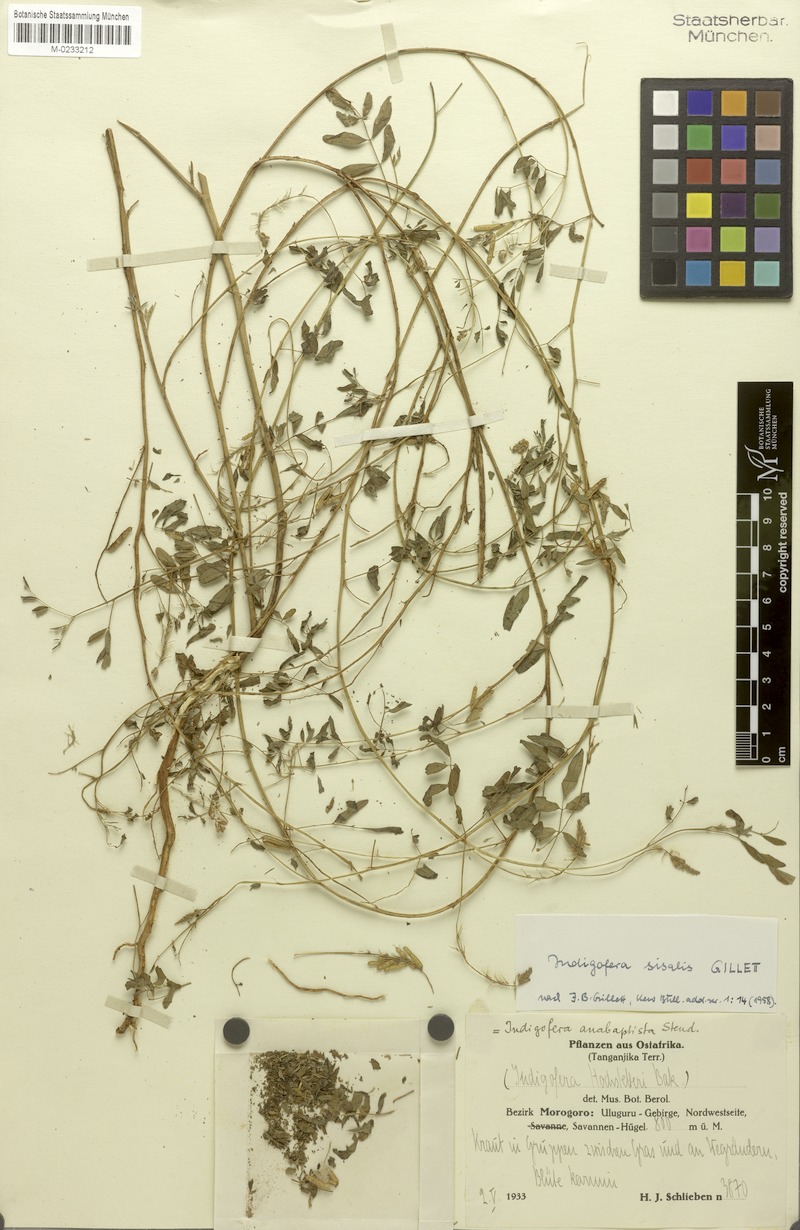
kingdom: Plantae
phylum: Tracheophyta
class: Magnoliopsida
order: Fabales
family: Fabaceae
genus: Indigofera
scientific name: Indigofera sisalis
